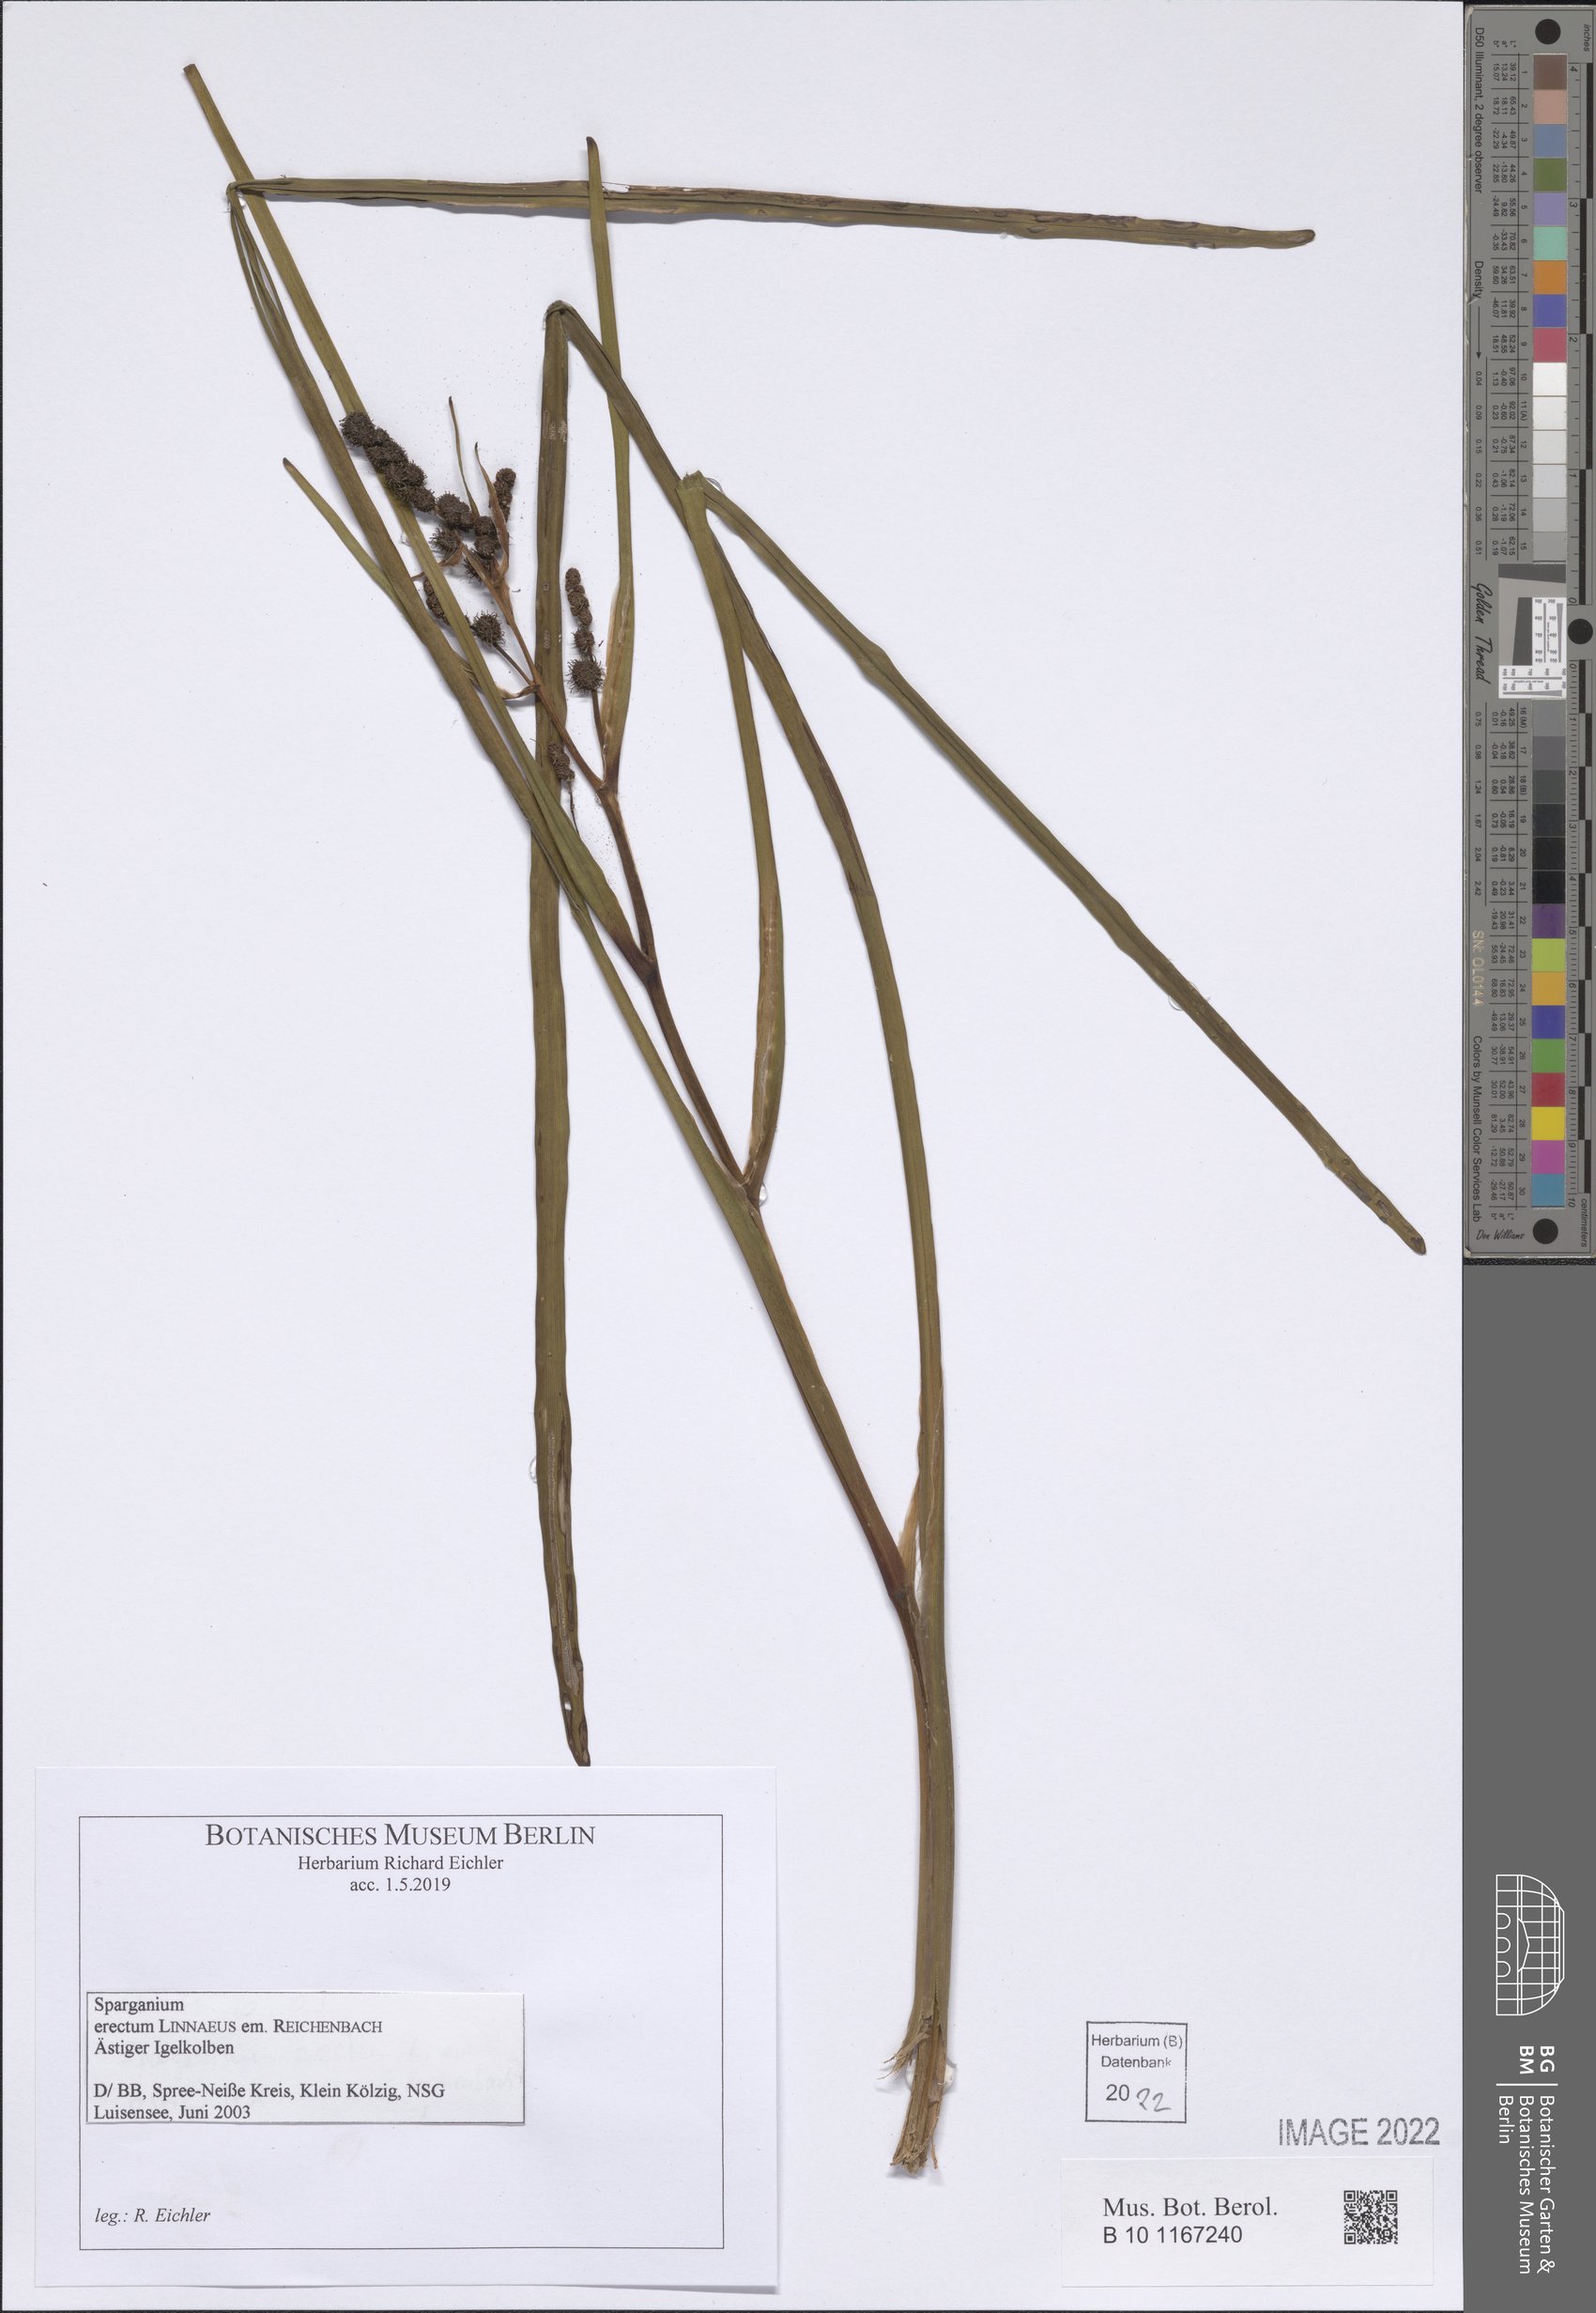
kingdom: Plantae
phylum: Tracheophyta
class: Liliopsida
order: Poales
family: Typhaceae
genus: Sparganium
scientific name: Sparganium erectum
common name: Branched bur-reed
